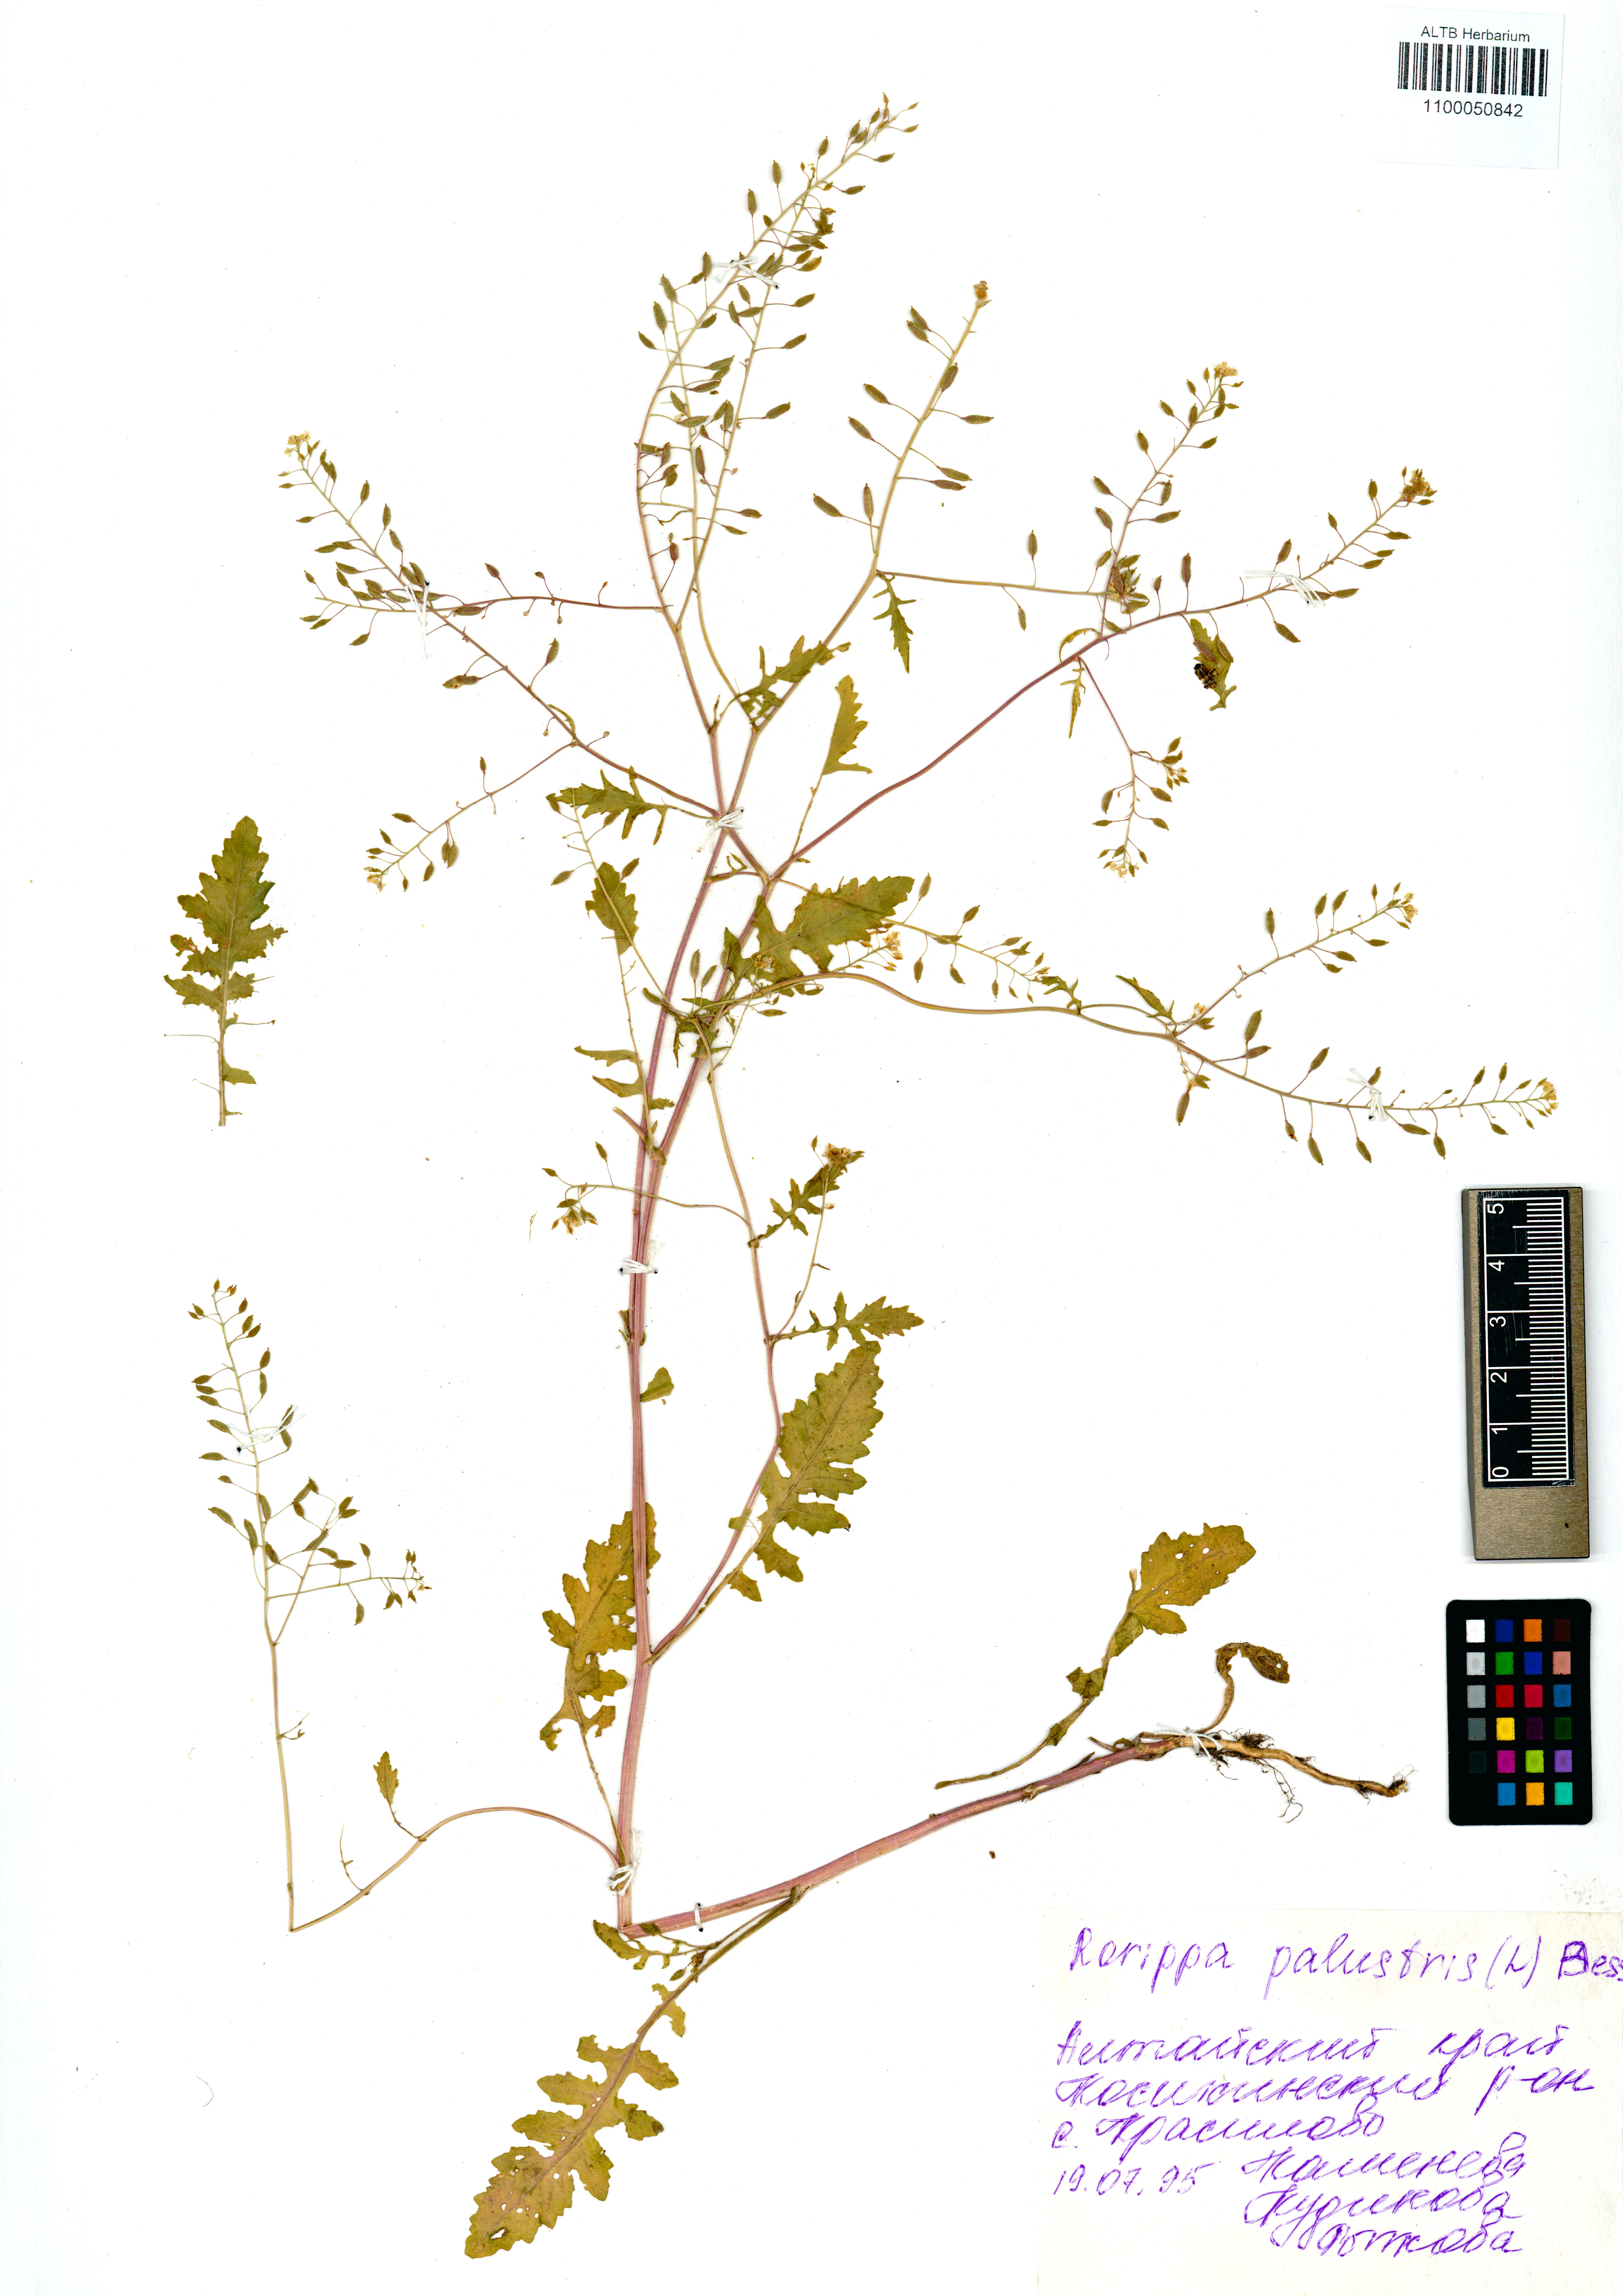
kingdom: Plantae
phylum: Tracheophyta
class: Magnoliopsida
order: Brassicales
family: Brassicaceae
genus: Rorippa
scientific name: Rorippa palustris
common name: Marsh yellow-cress
